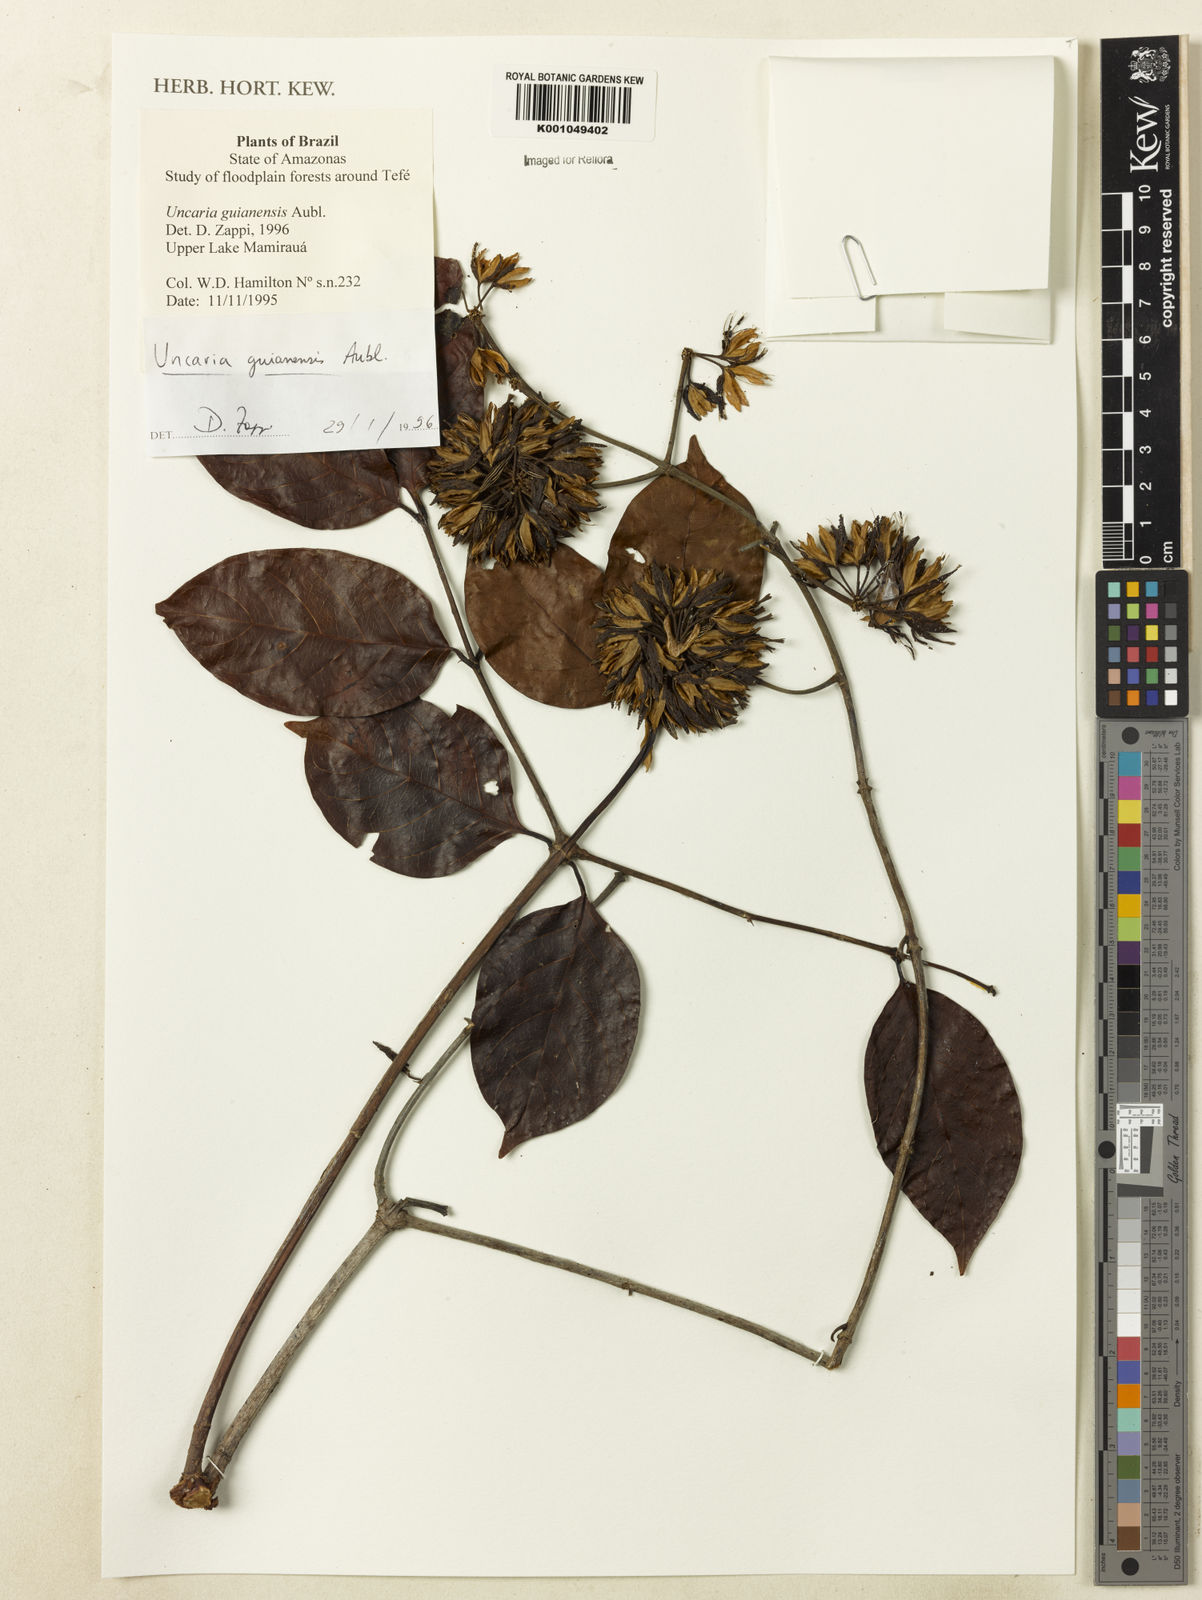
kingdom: Plantae
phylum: Tracheophyta
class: Magnoliopsida
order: Gentianales
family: Rubiaceae
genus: Uncaria
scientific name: Uncaria guianensis
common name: Cat's-claw
